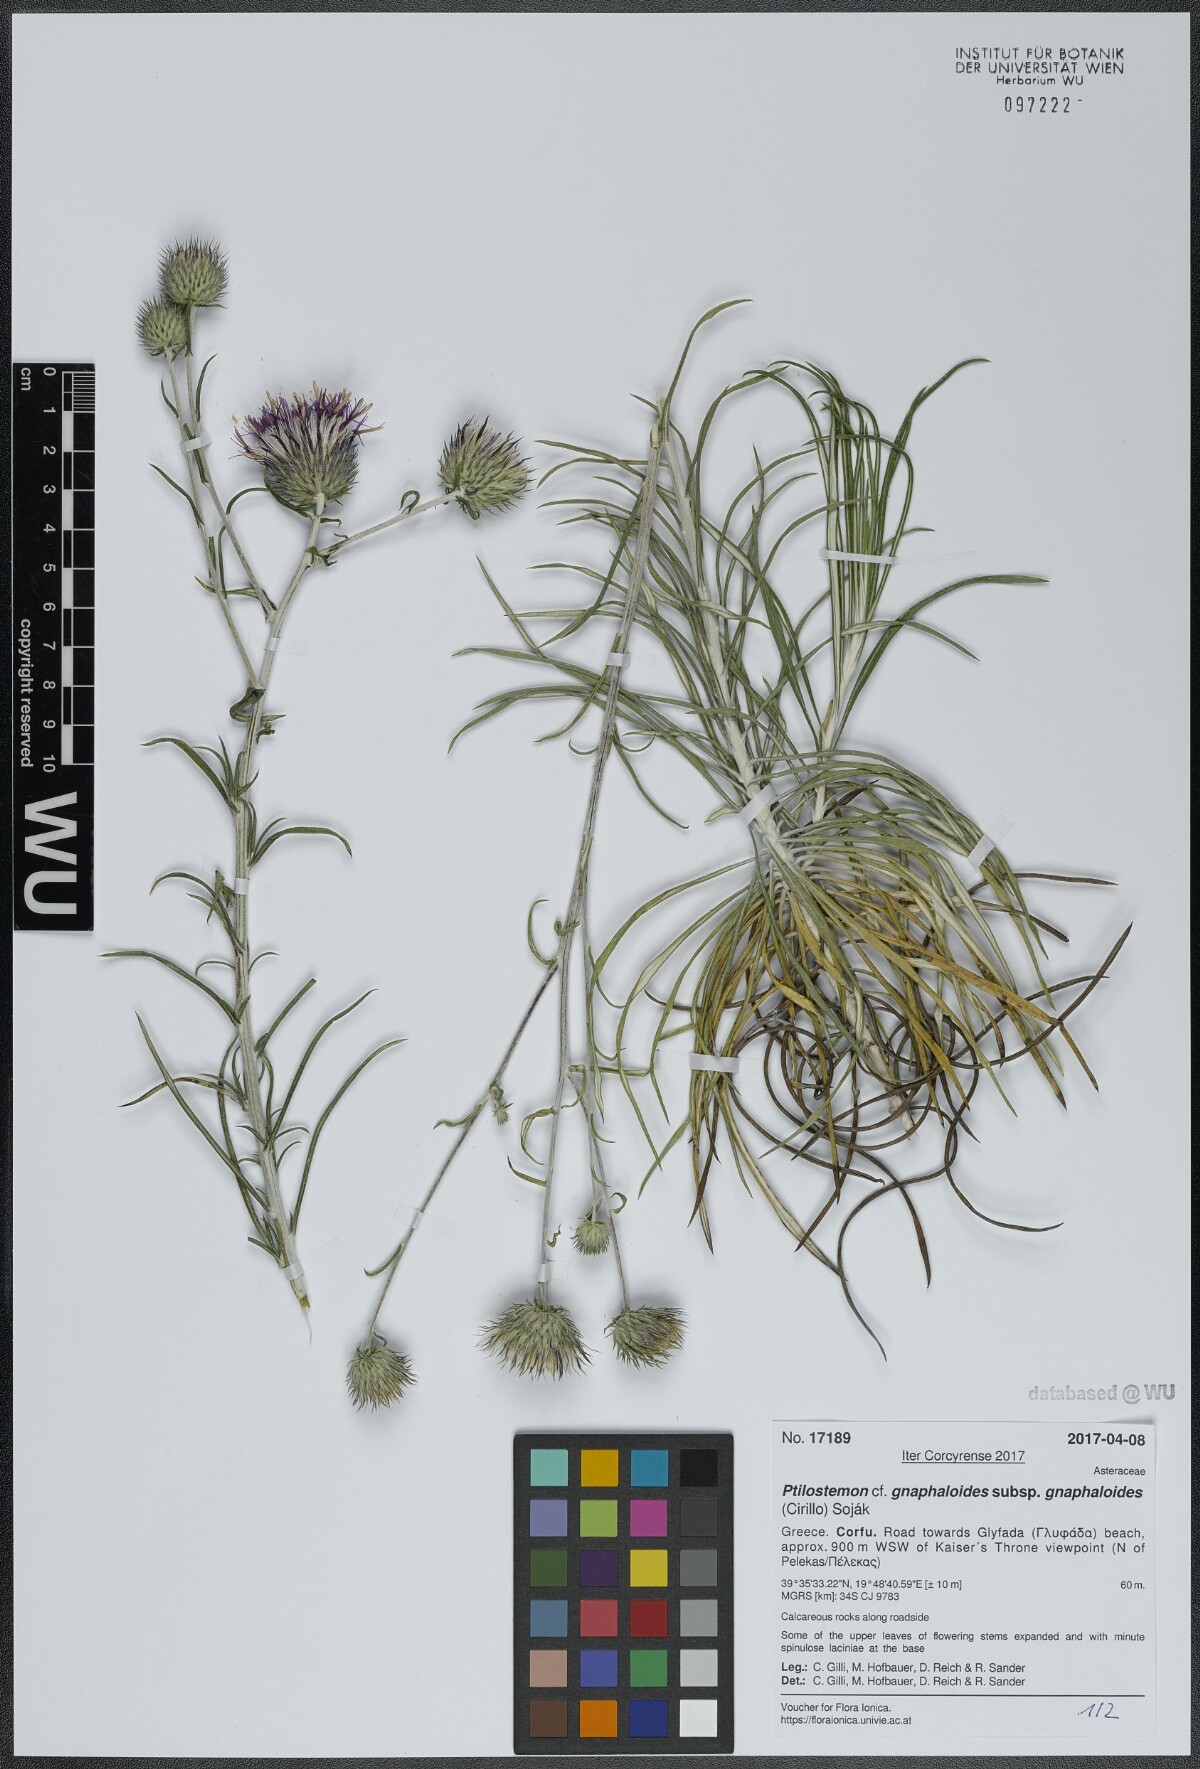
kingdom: Plantae
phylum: Tracheophyta
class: Magnoliopsida
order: Asterales
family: Asteraceae
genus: Ptilostemon
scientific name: Ptilostemon gnaphaloides
